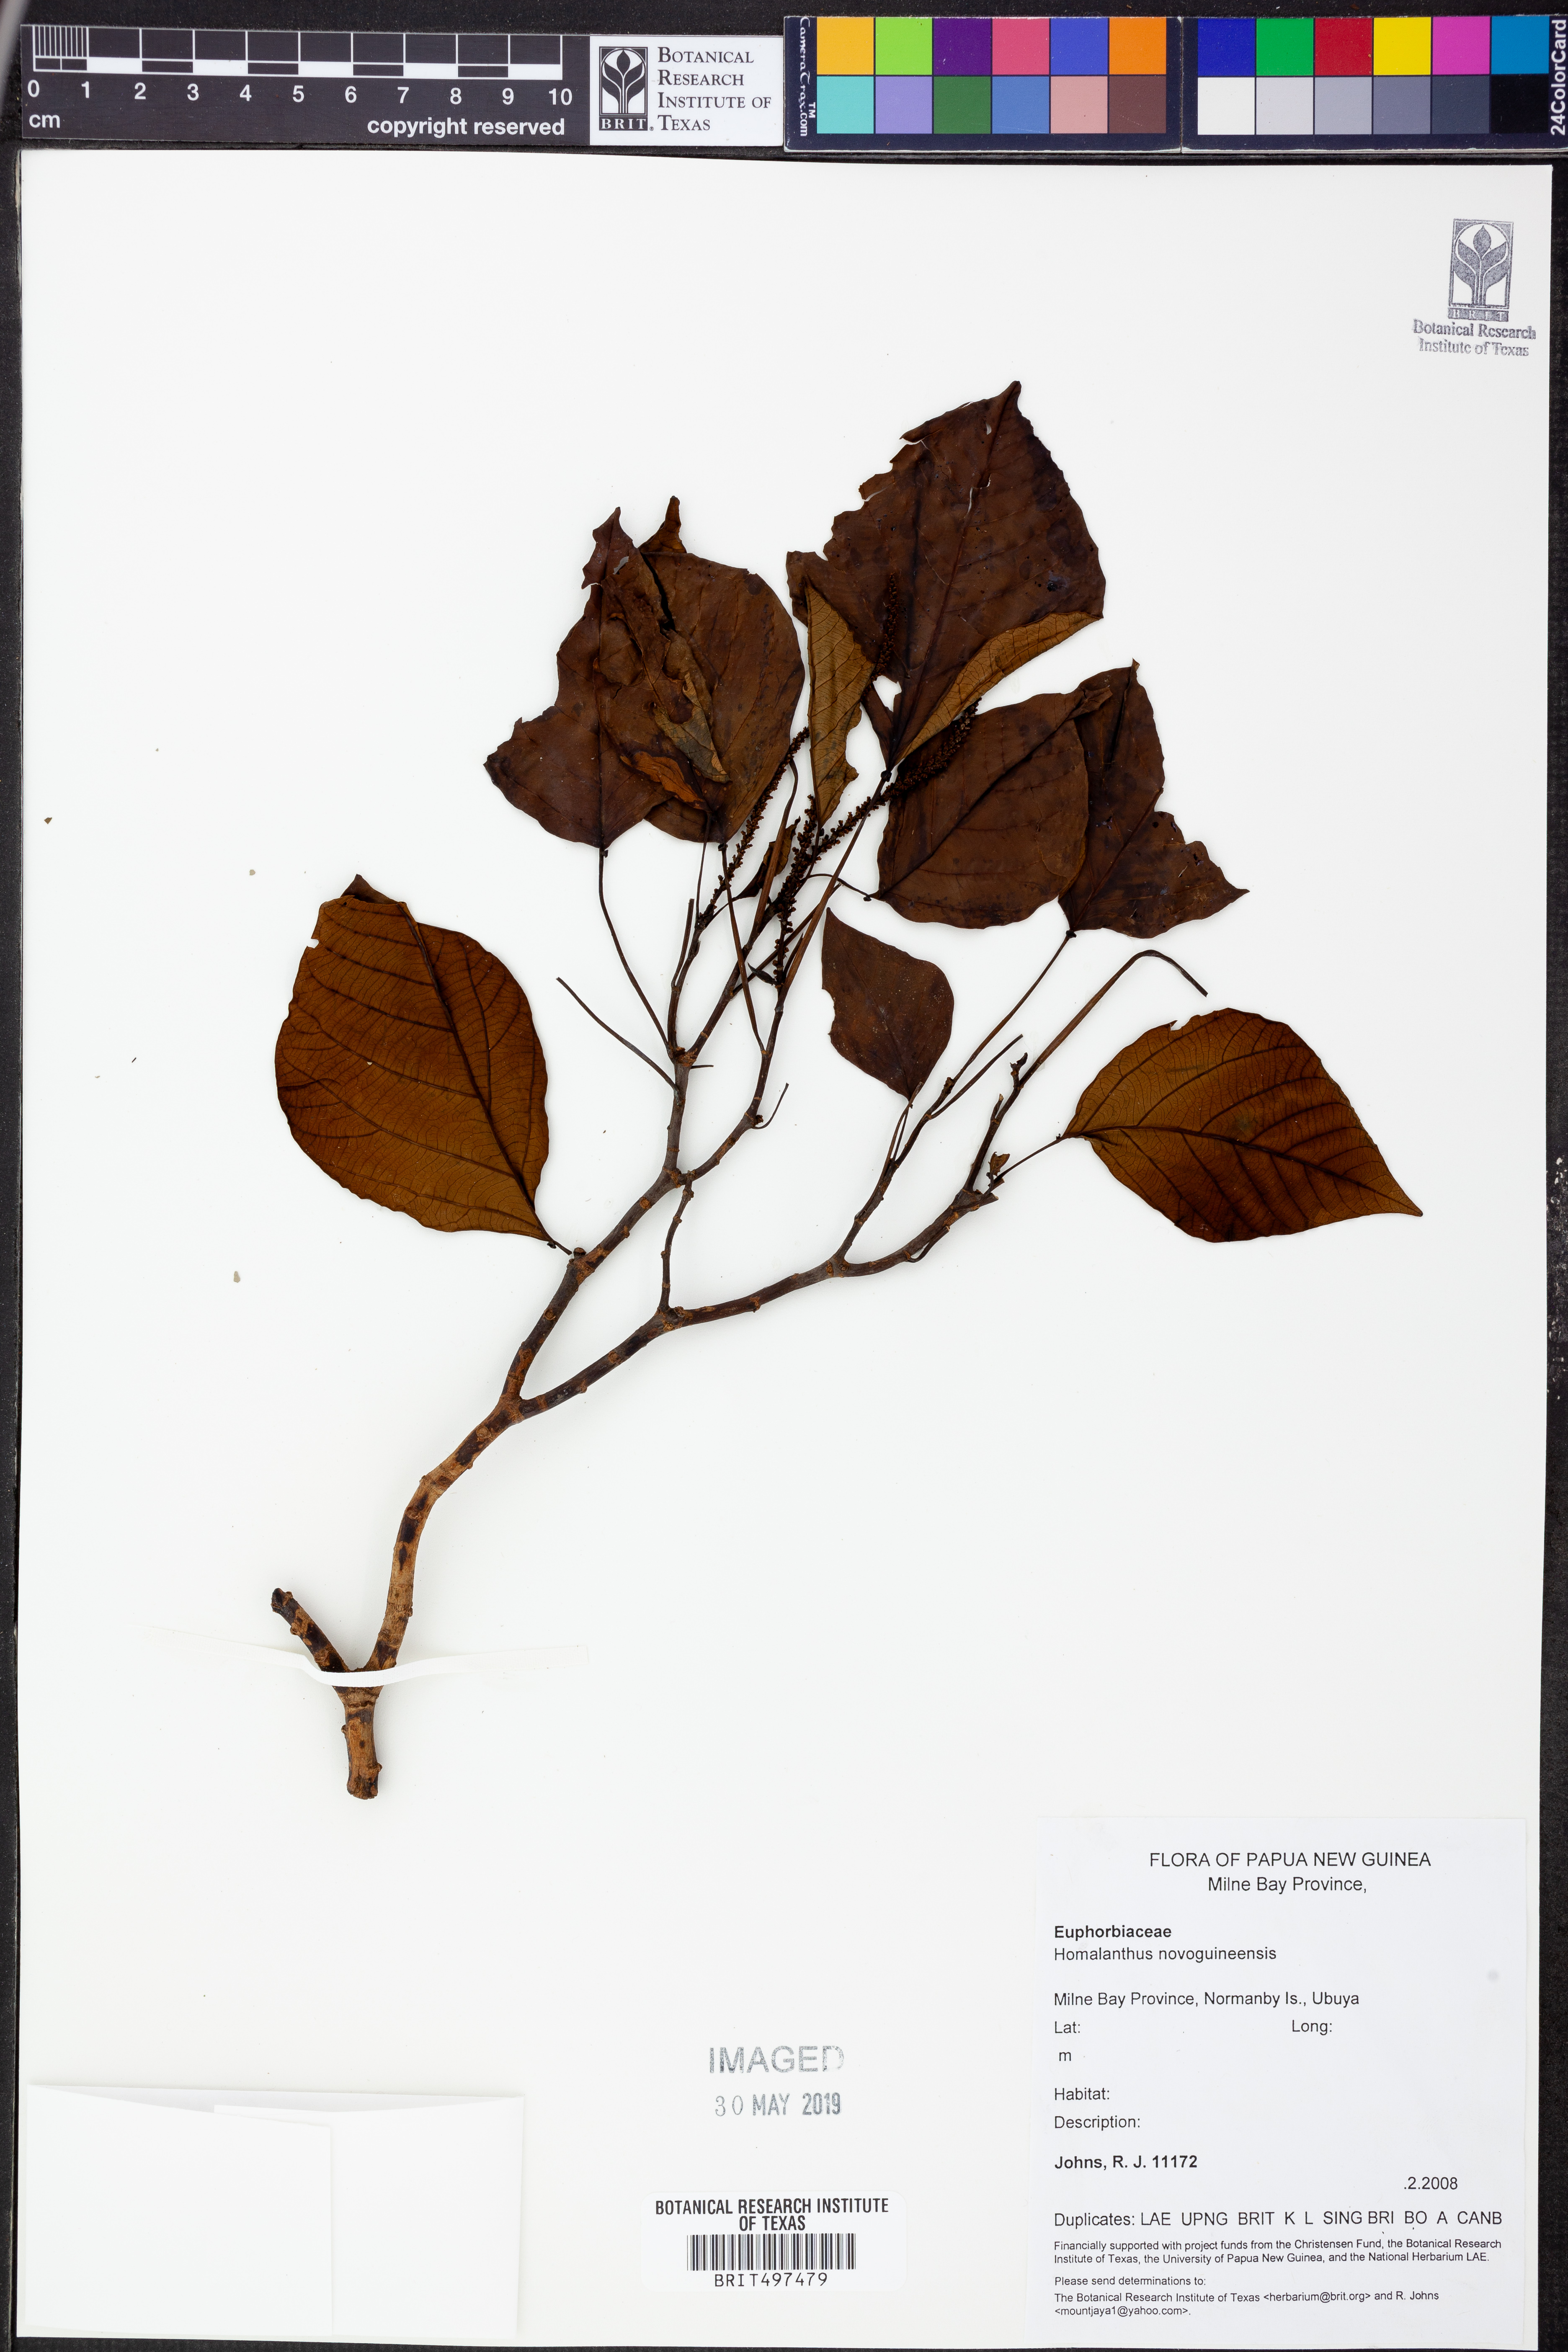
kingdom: Plantae
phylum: Tracheophyta
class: Magnoliopsida
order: Malpighiales
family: Euphorbiaceae
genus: Homalanthus
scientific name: Homalanthus novoguineensis
